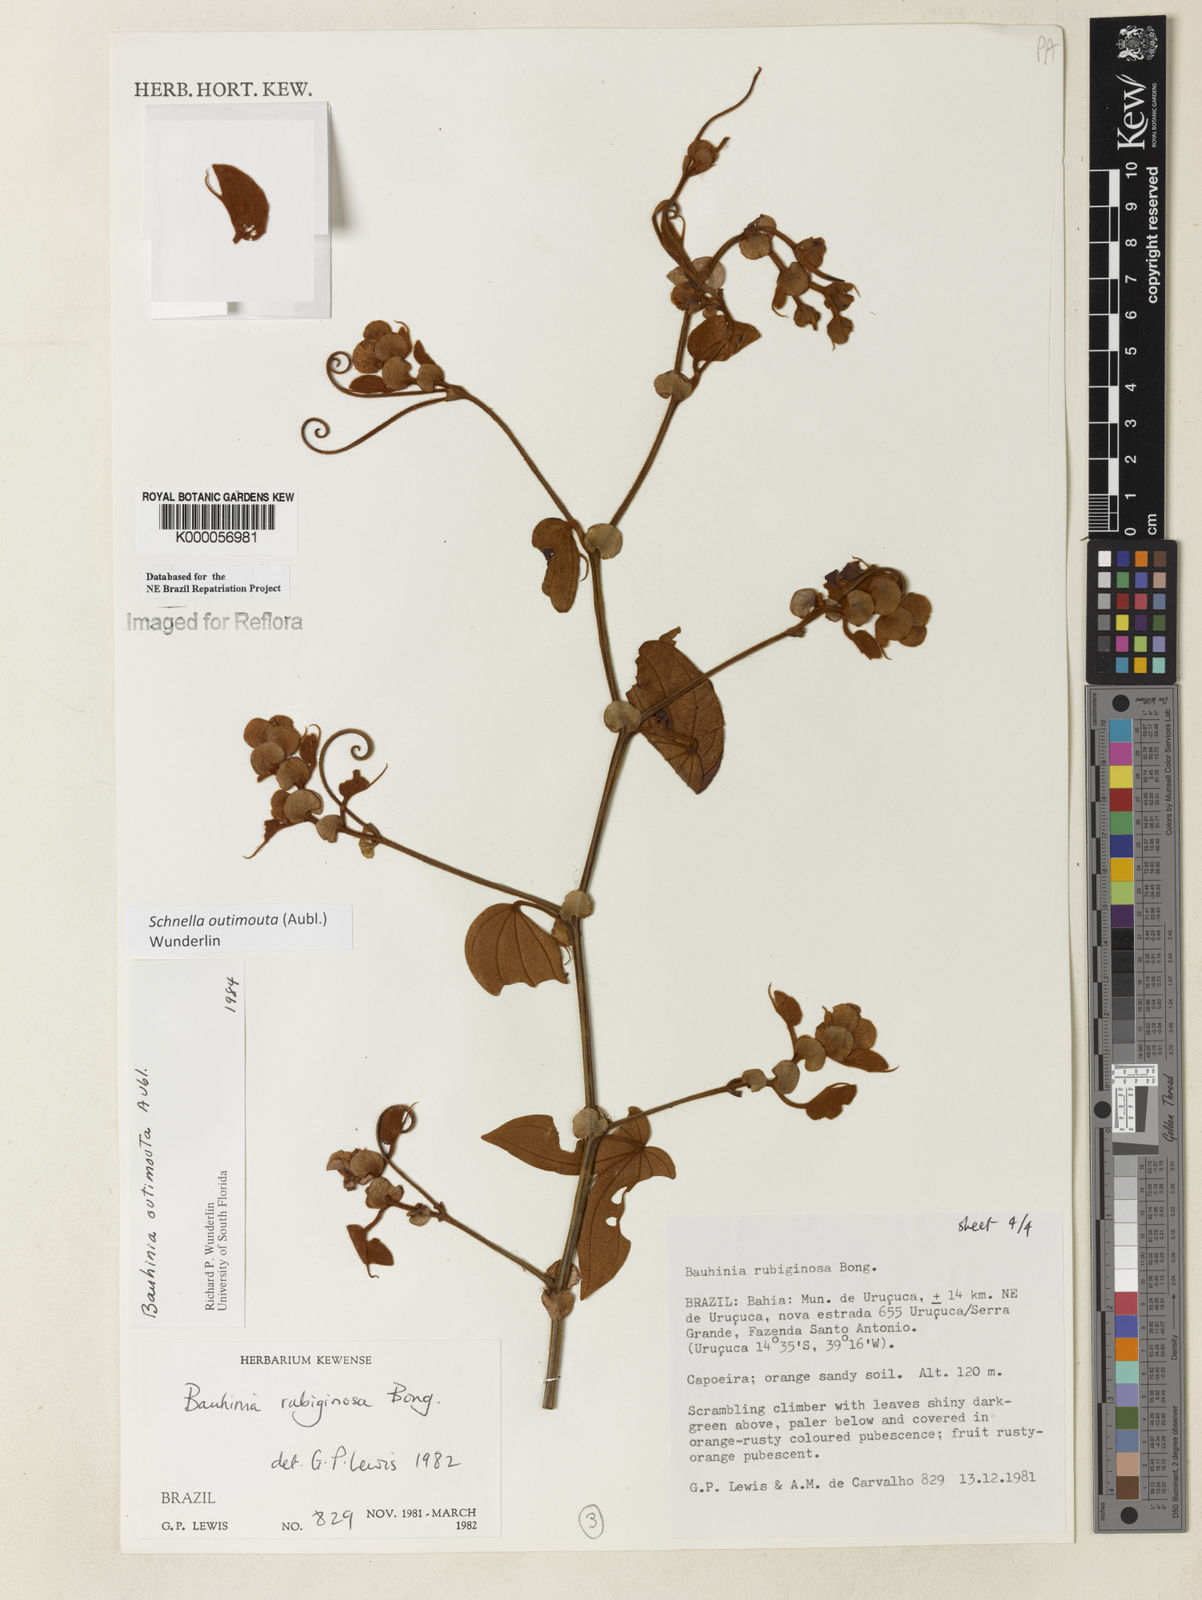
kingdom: Plantae
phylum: Tracheophyta
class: Magnoliopsida
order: Fabales
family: Fabaceae
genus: Schnella
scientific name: Schnella outimouta
